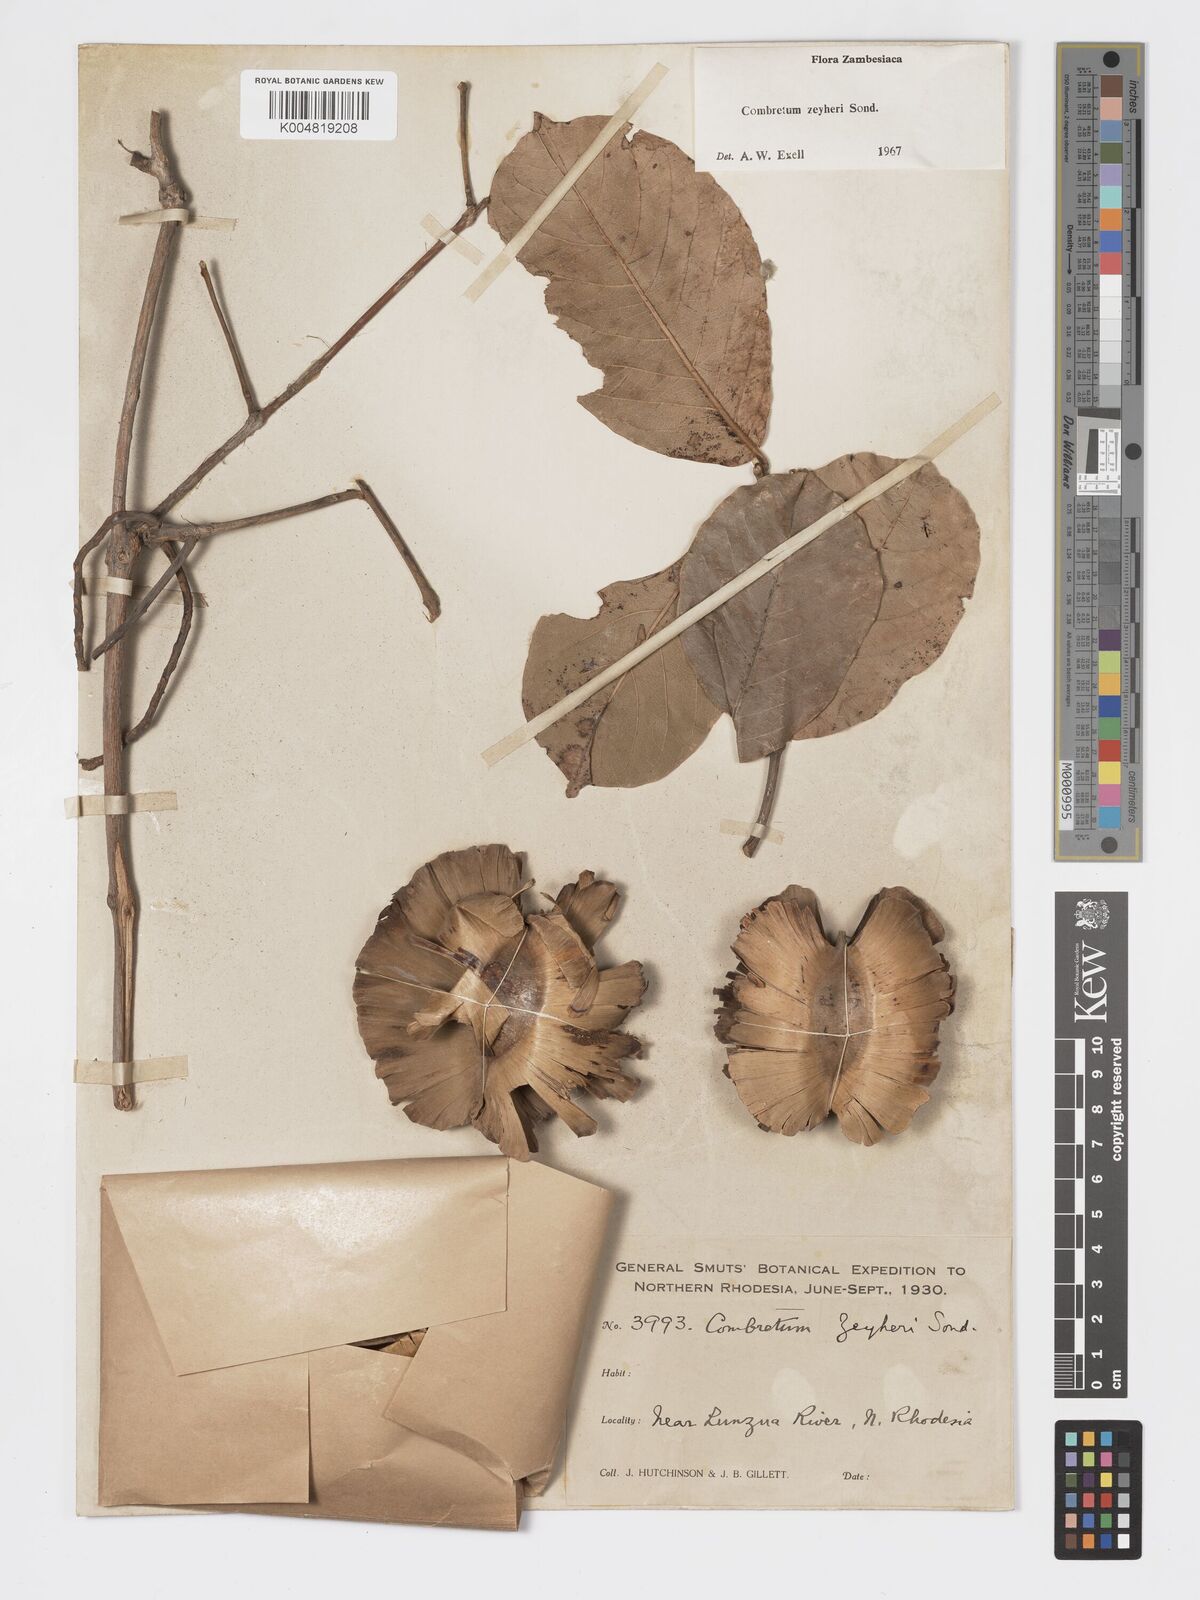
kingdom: Plantae
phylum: Tracheophyta
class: Magnoliopsida
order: Myrtales
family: Combretaceae
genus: Combretum
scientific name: Combretum zeyheri
